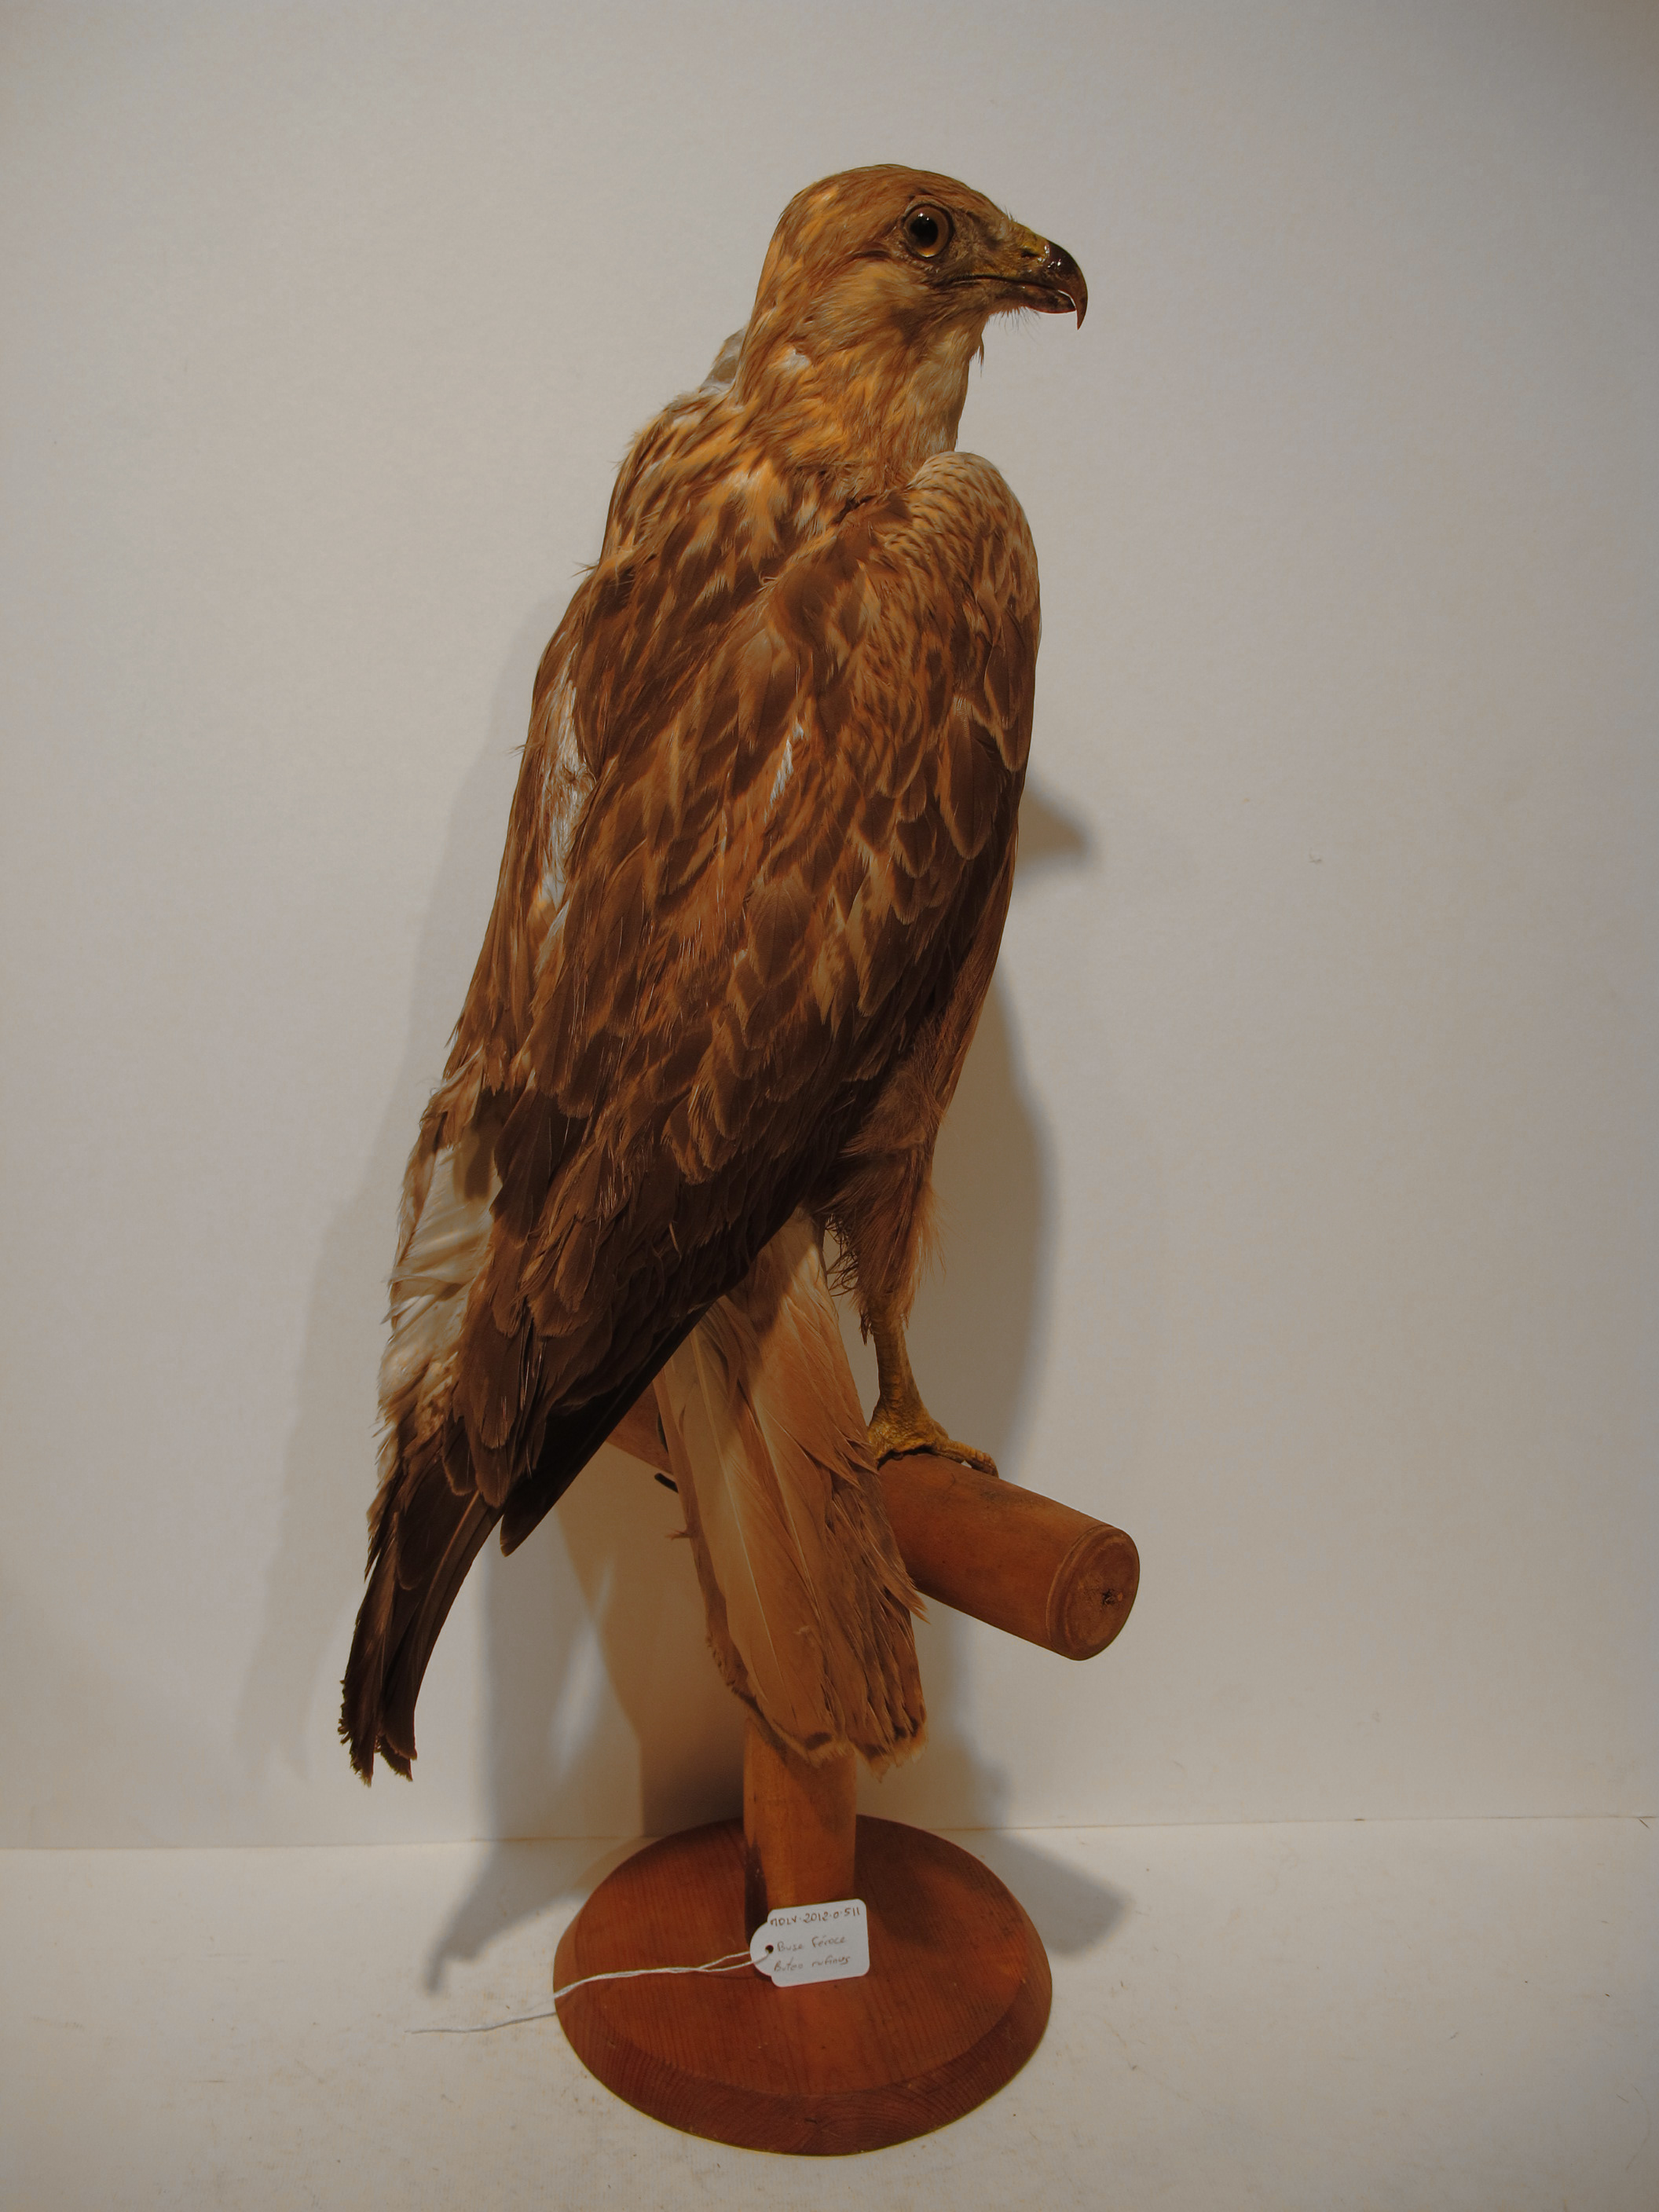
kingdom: Animalia
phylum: Chordata
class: Aves
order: Accipitriformes
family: Accipitridae
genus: Buteo
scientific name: Buteo rufinus
